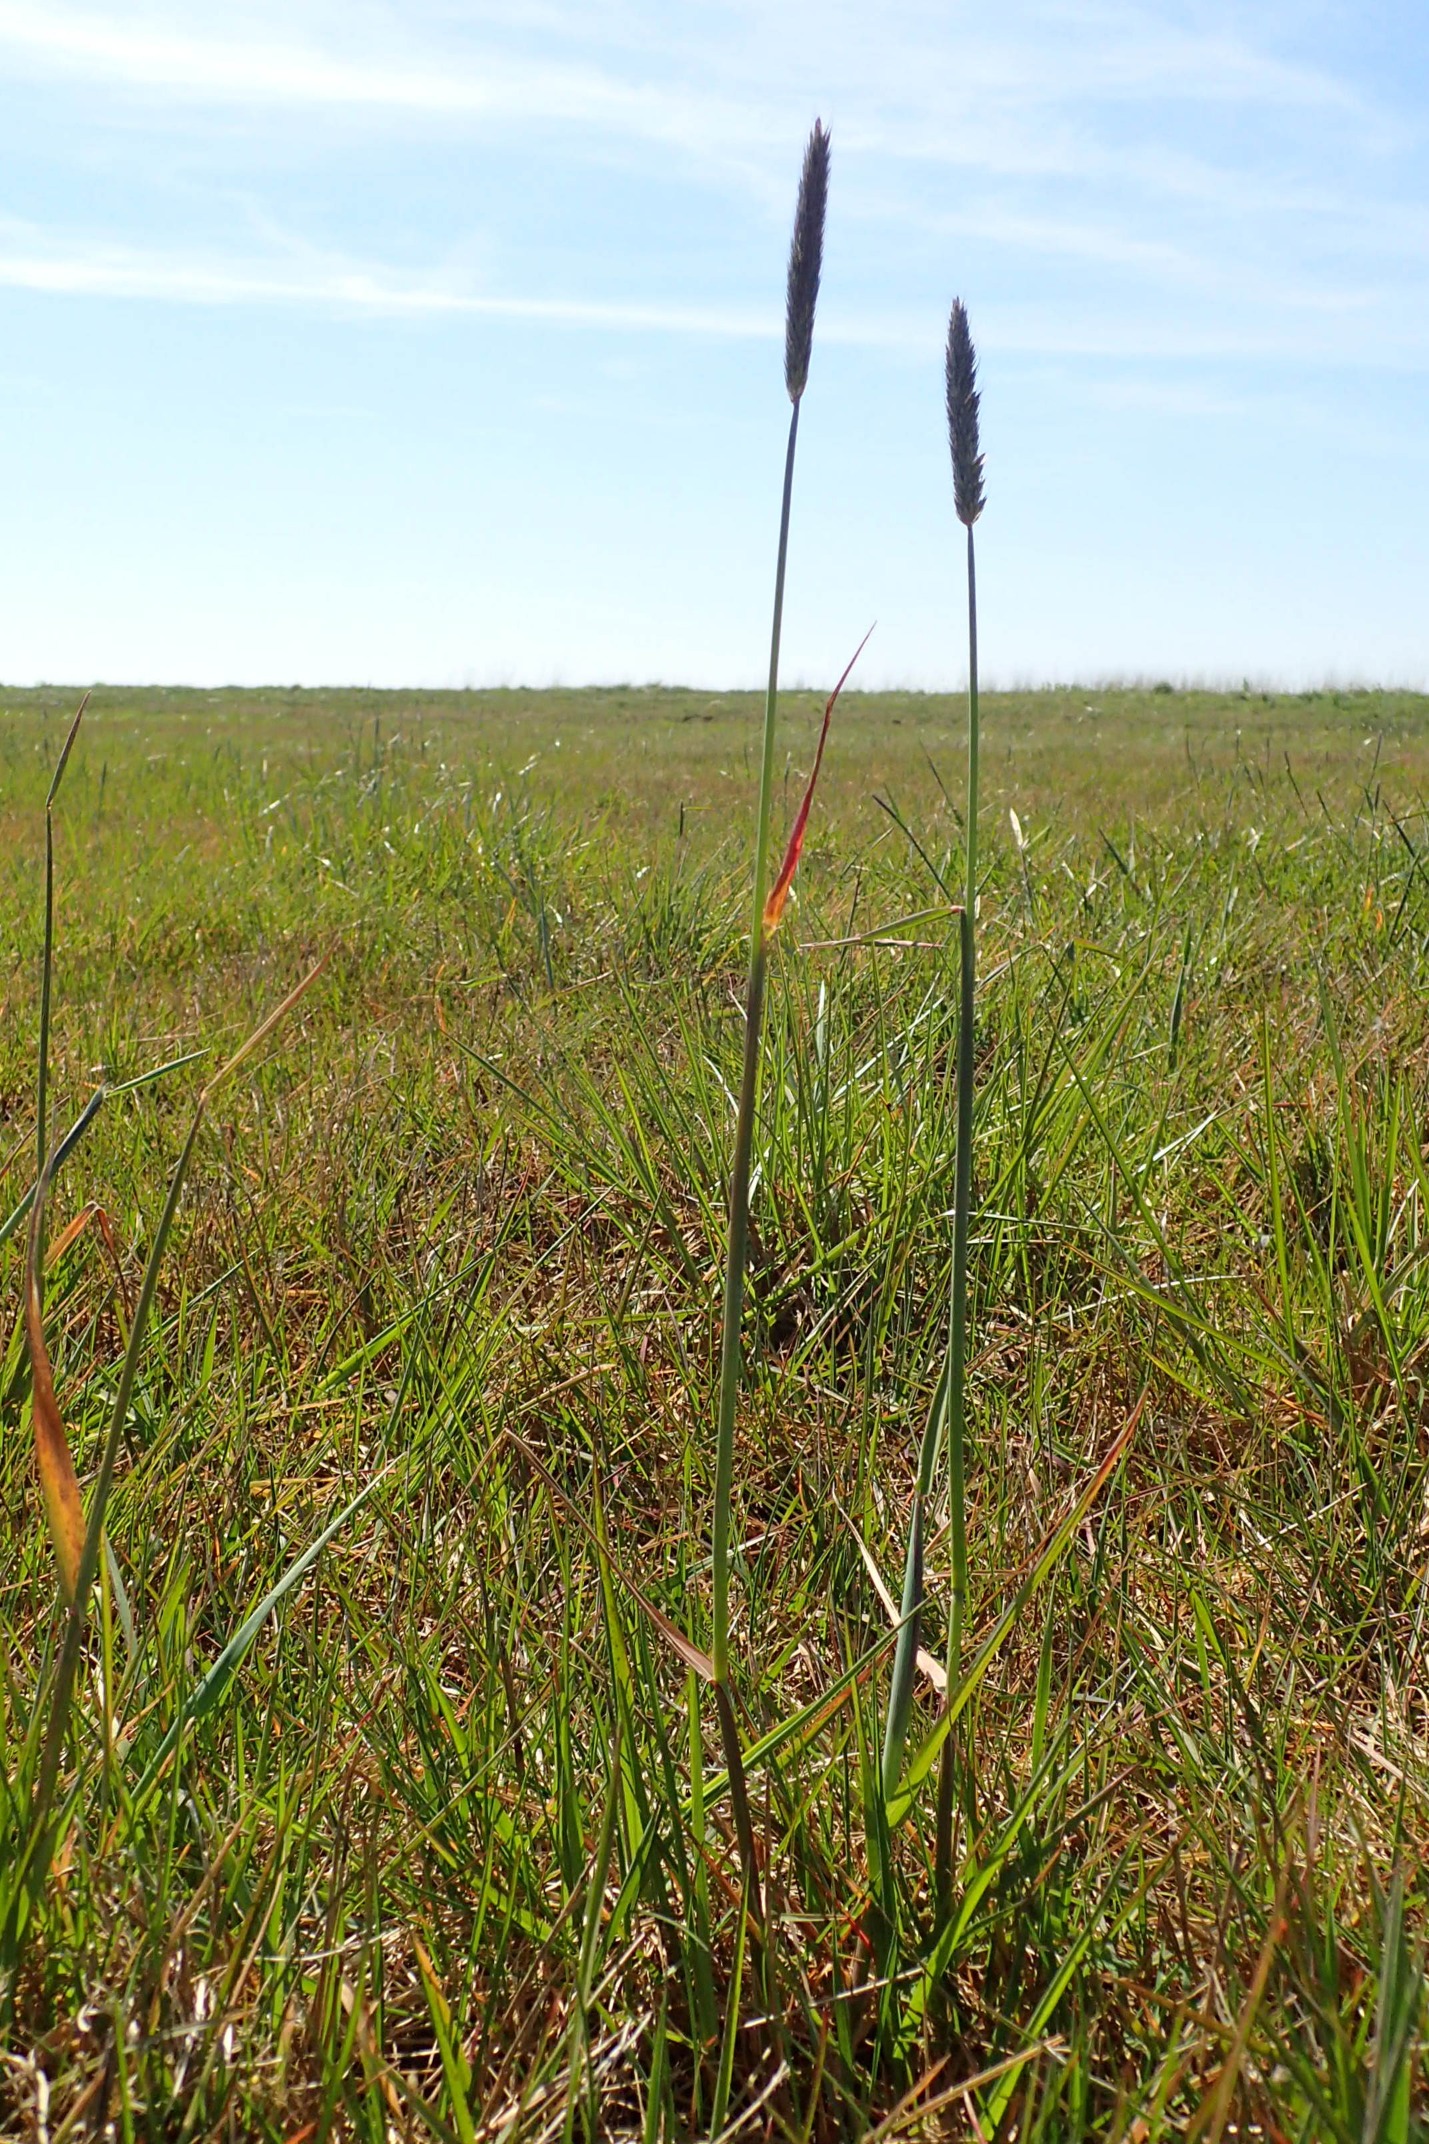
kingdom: Plantae
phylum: Tracheophyta
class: Liliopsida
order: Poales
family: Poaceae
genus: Alopecurus
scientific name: Alopecurus pratensis
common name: Eng-rævehale
